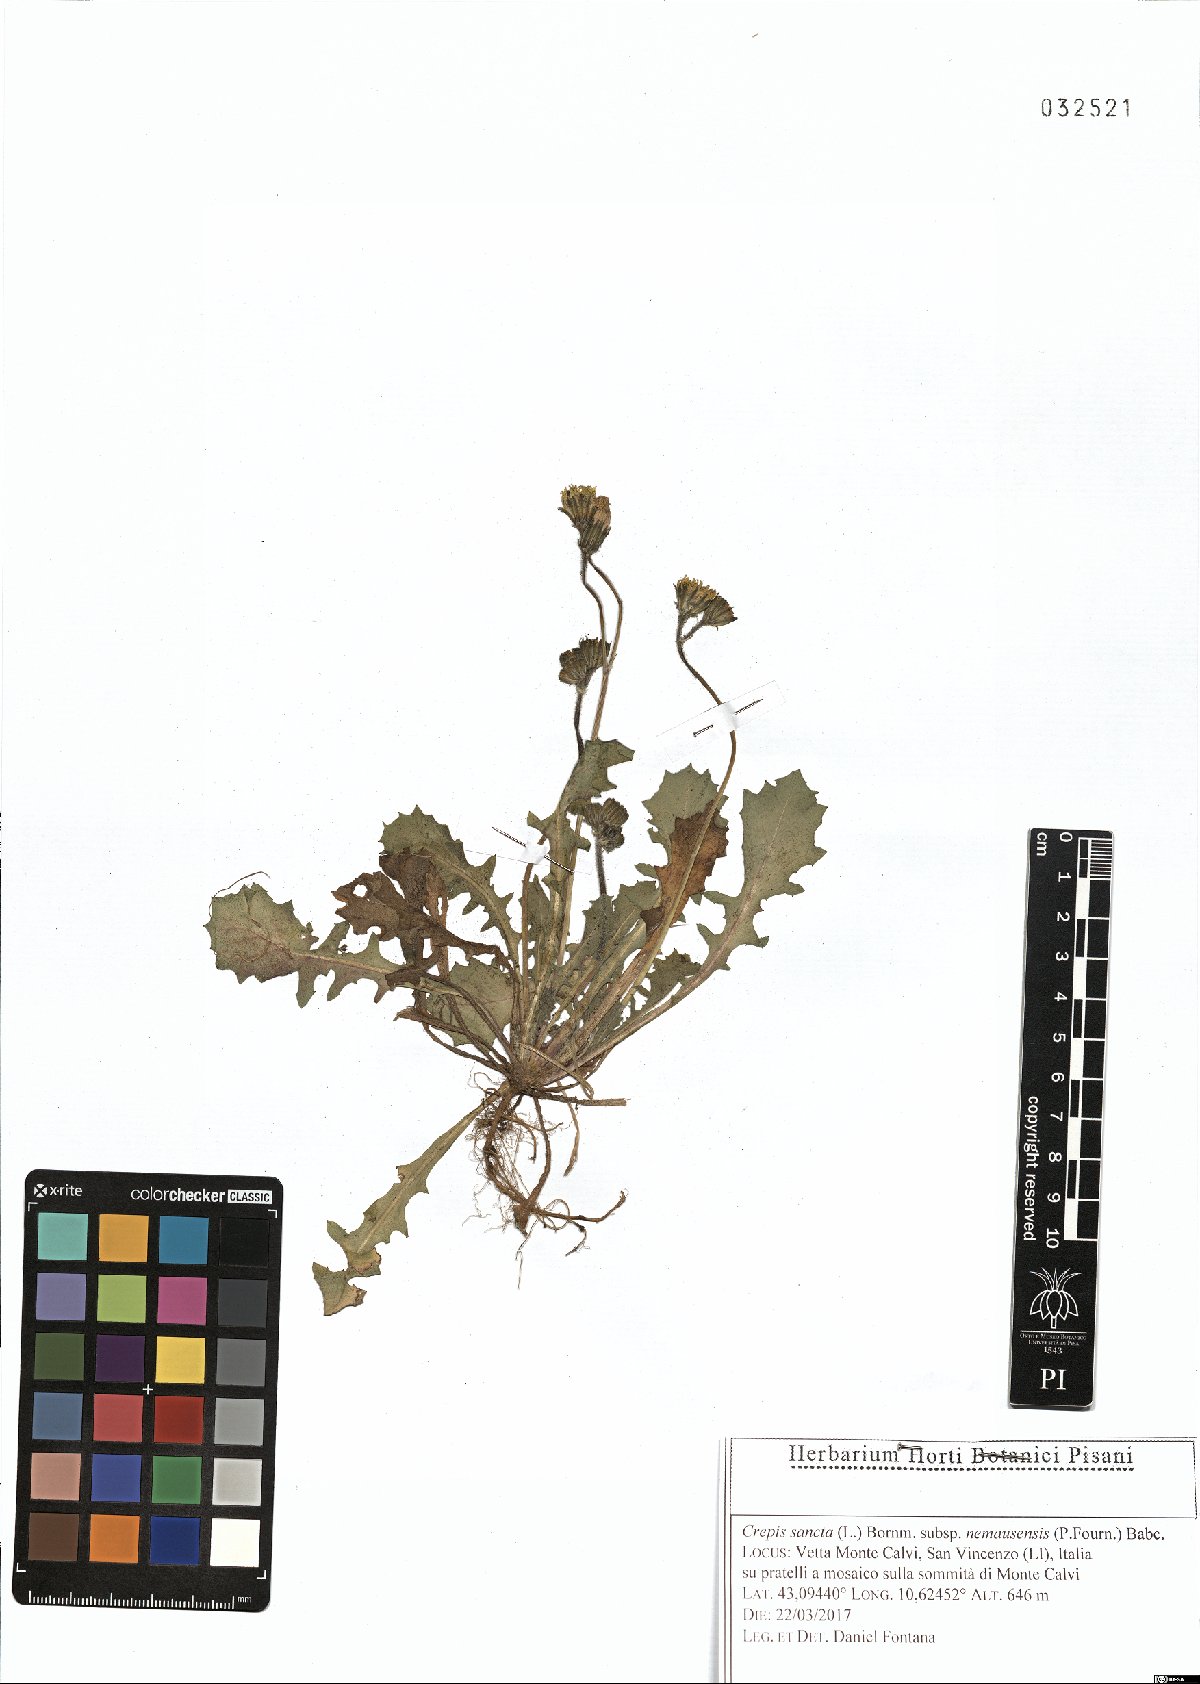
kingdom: Plantae
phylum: Tracheophyta
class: Magnoliopsida
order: Asterales
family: Asteraceae
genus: Crepis
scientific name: Crepis sancta
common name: Hawk's-beard
